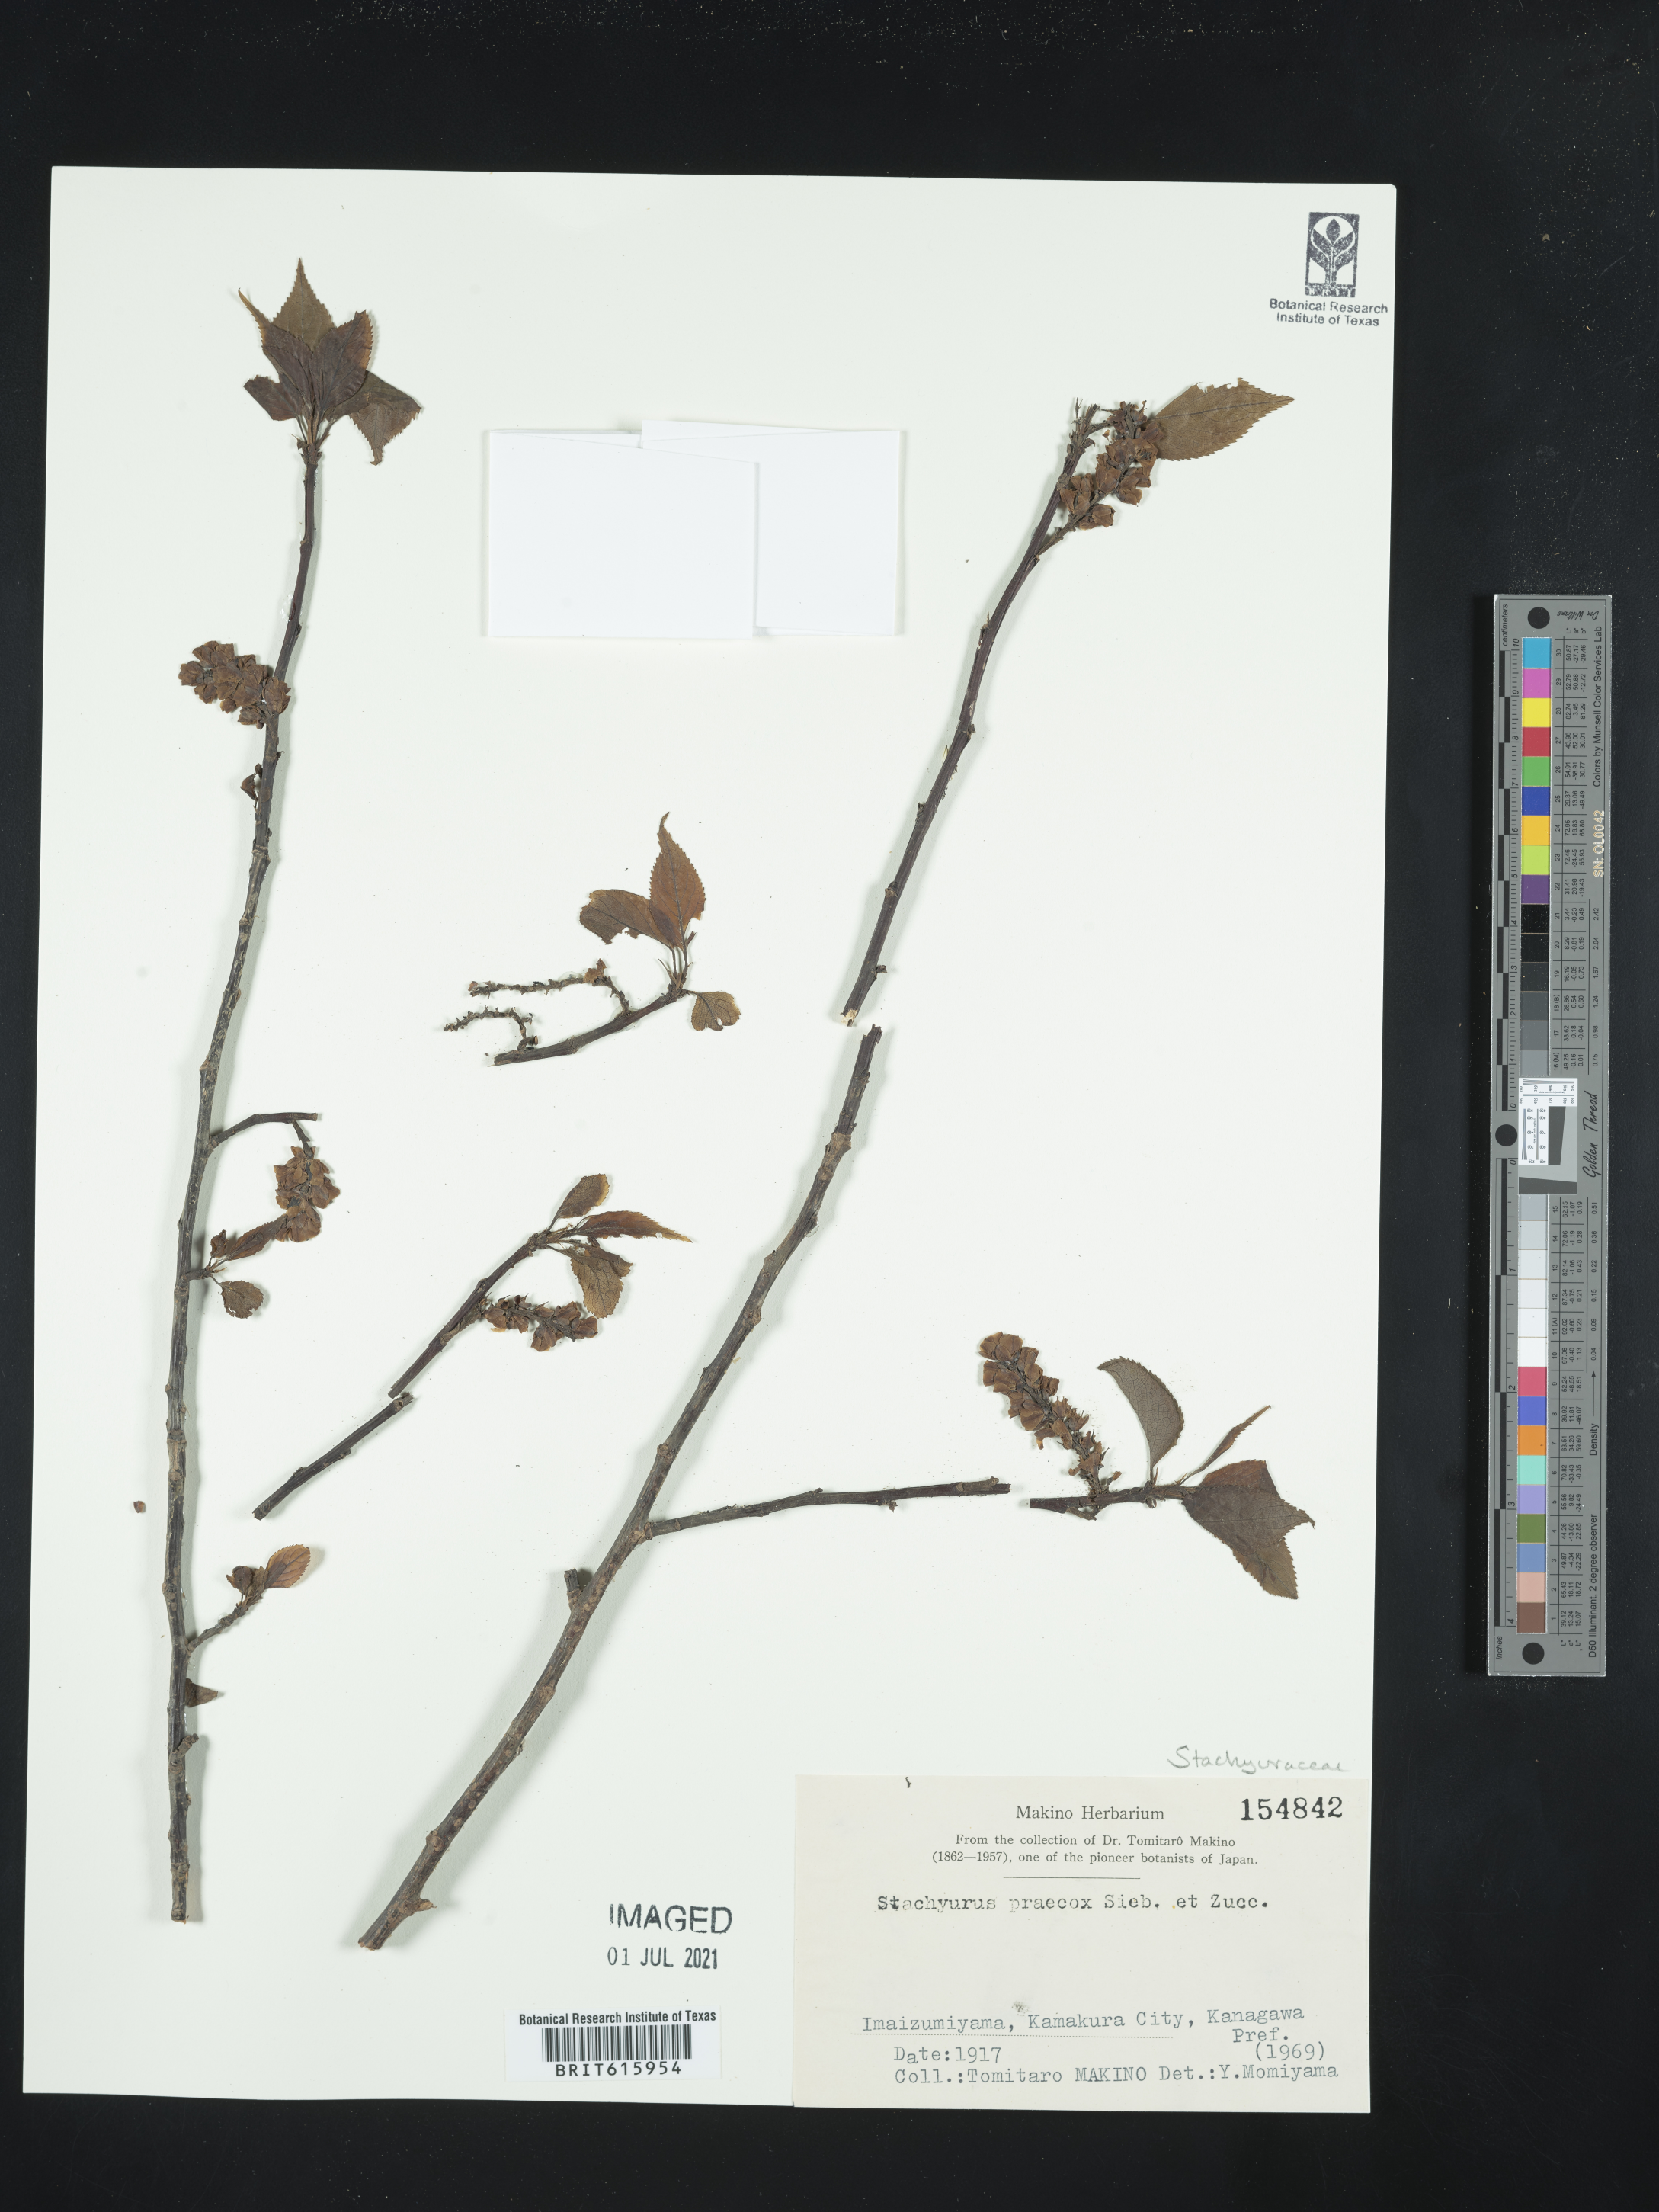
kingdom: Plantae
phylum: Tracheophyta
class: Magnoliopsida
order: Crossosomatales
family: Stachyuraceae
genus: Stachyurus
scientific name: Stachyurus praecox
